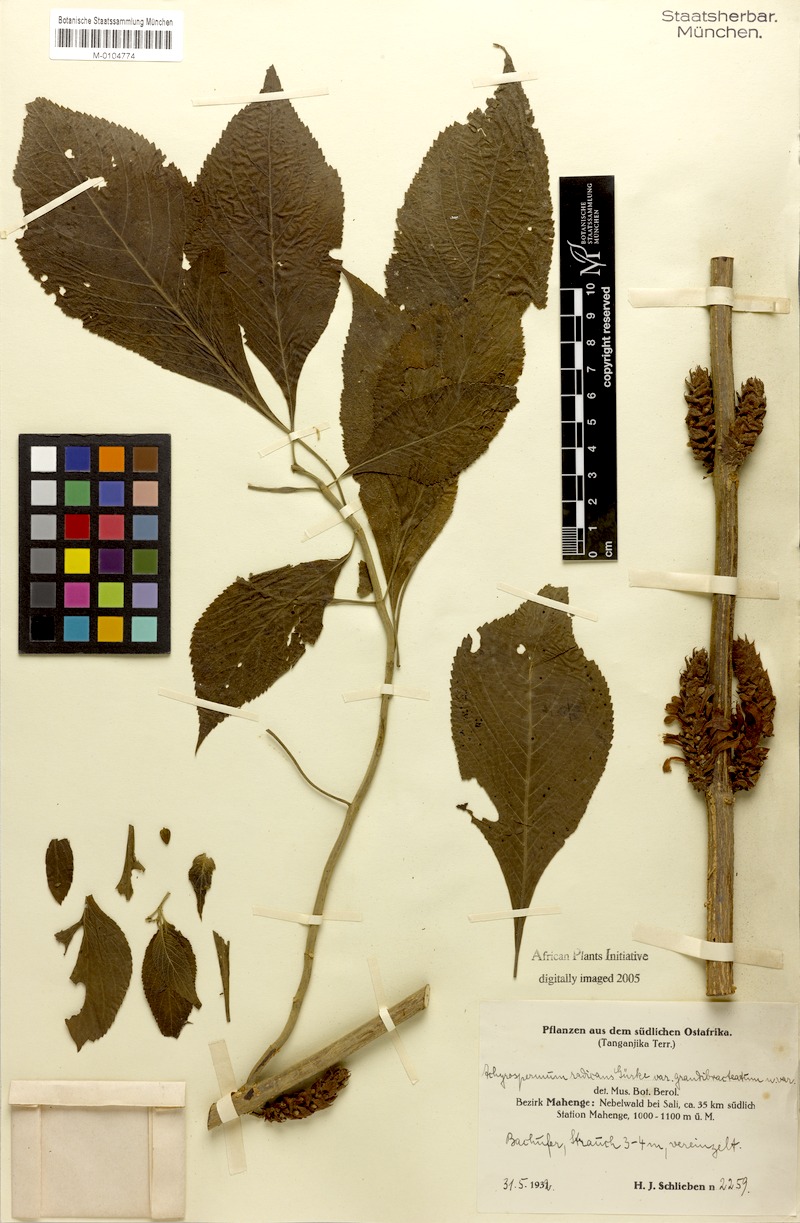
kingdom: Plantae
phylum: Tracheophyta
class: Magnoliopsida
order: Lamiales
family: Lamiaceae
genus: Achyrospermum
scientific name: Achyrospermum carvalhoi
